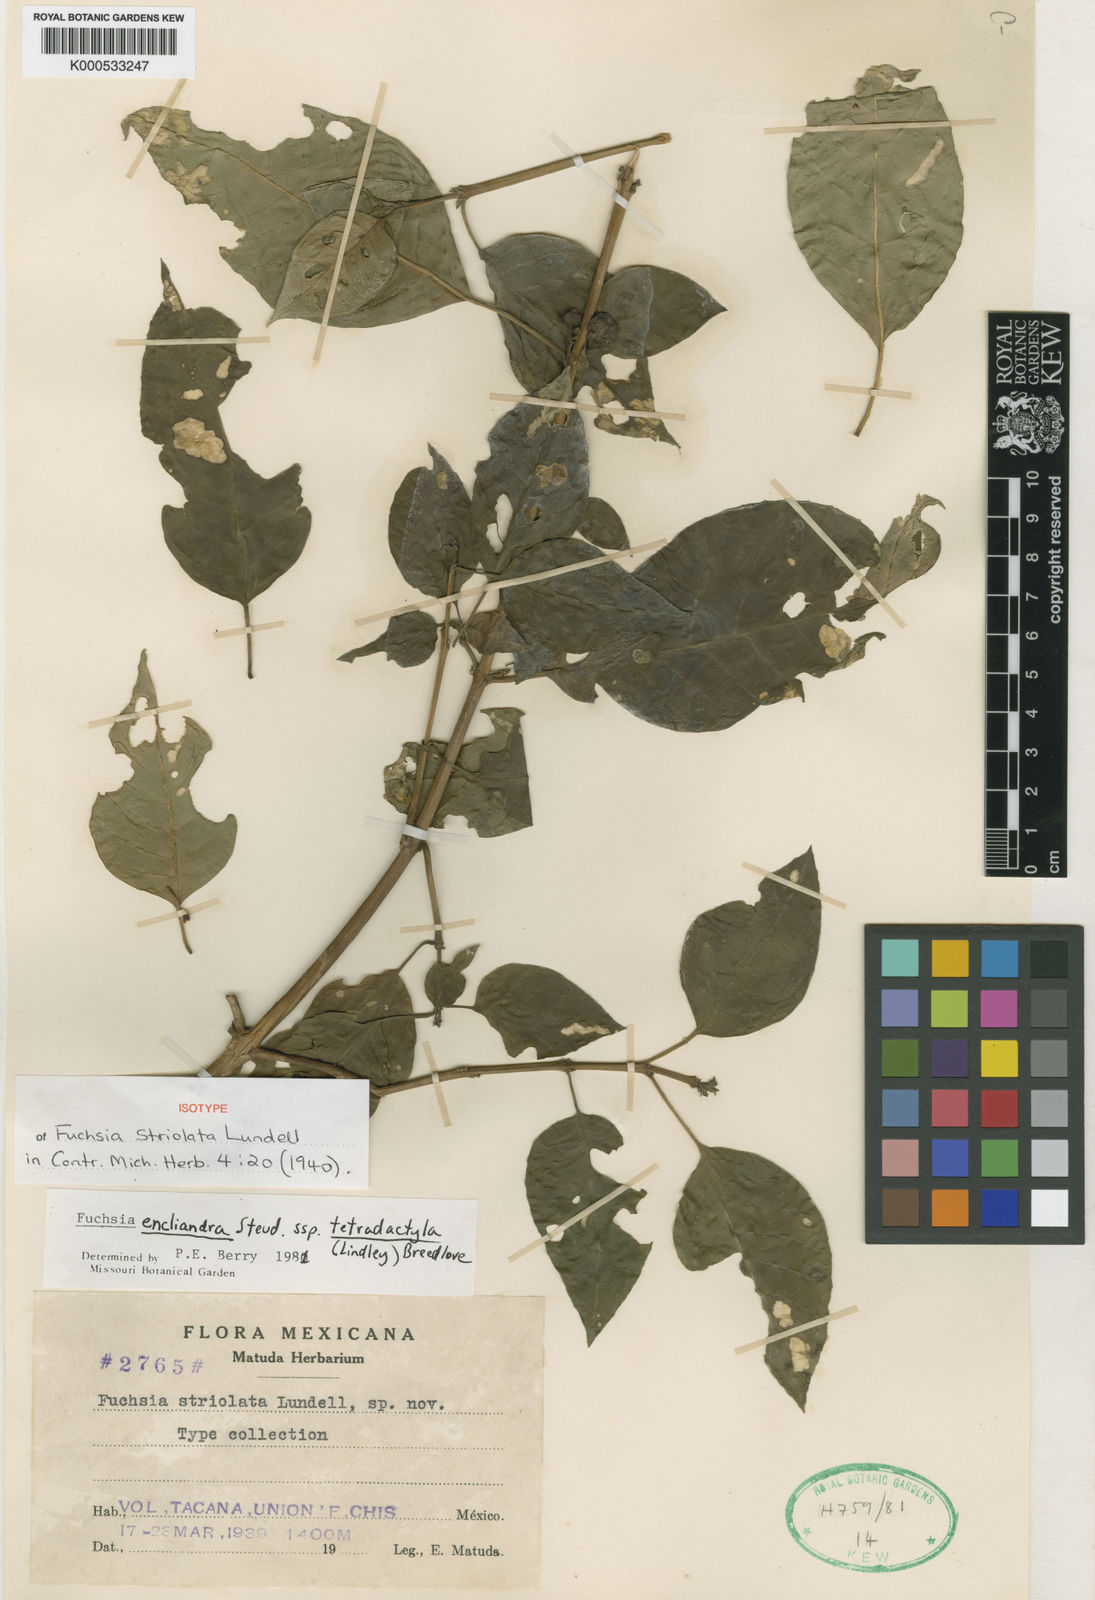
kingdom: Plantae
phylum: Tracheophyta
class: Magnoliopsida
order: Myrtales
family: Onagraceae
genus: Fuchsia
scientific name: Fuchsia encliandra
